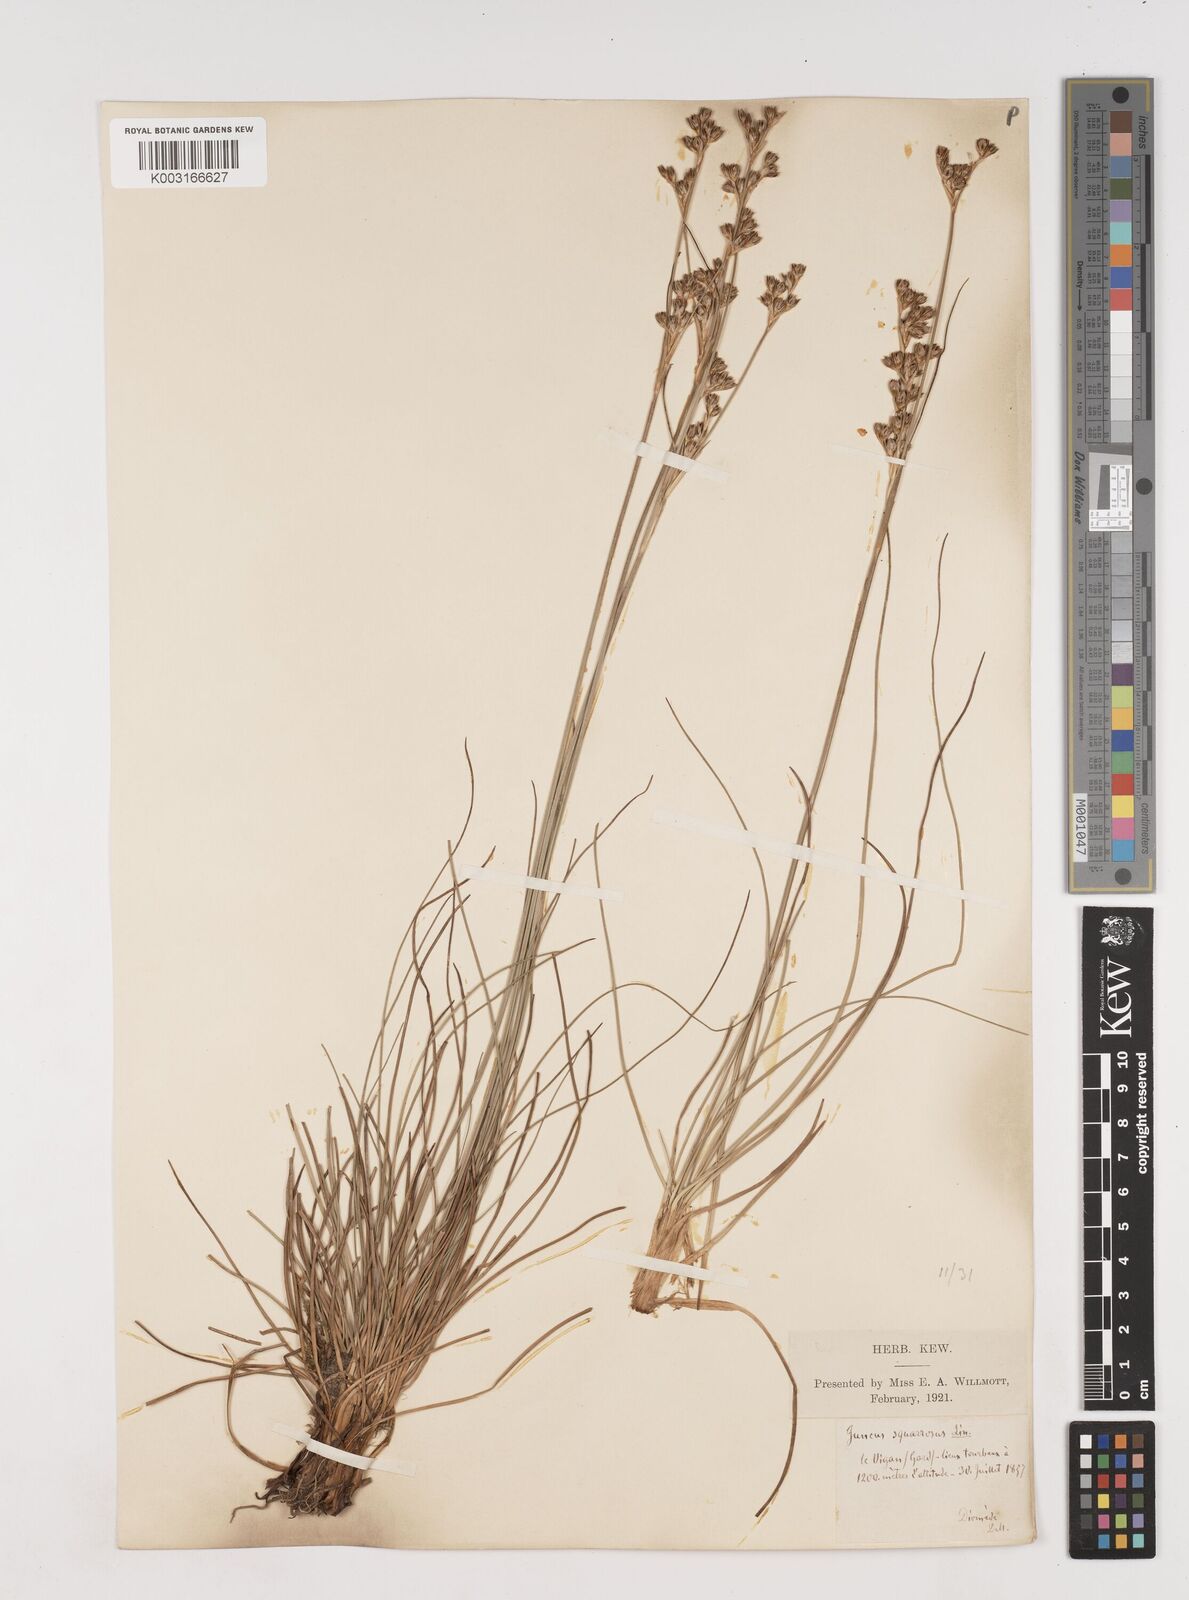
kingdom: Plantae
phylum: Tracheophyta
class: Liliopsida
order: Poales
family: Juncaceae
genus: Juncus
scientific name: Juncus squarrosus
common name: Heath rush
